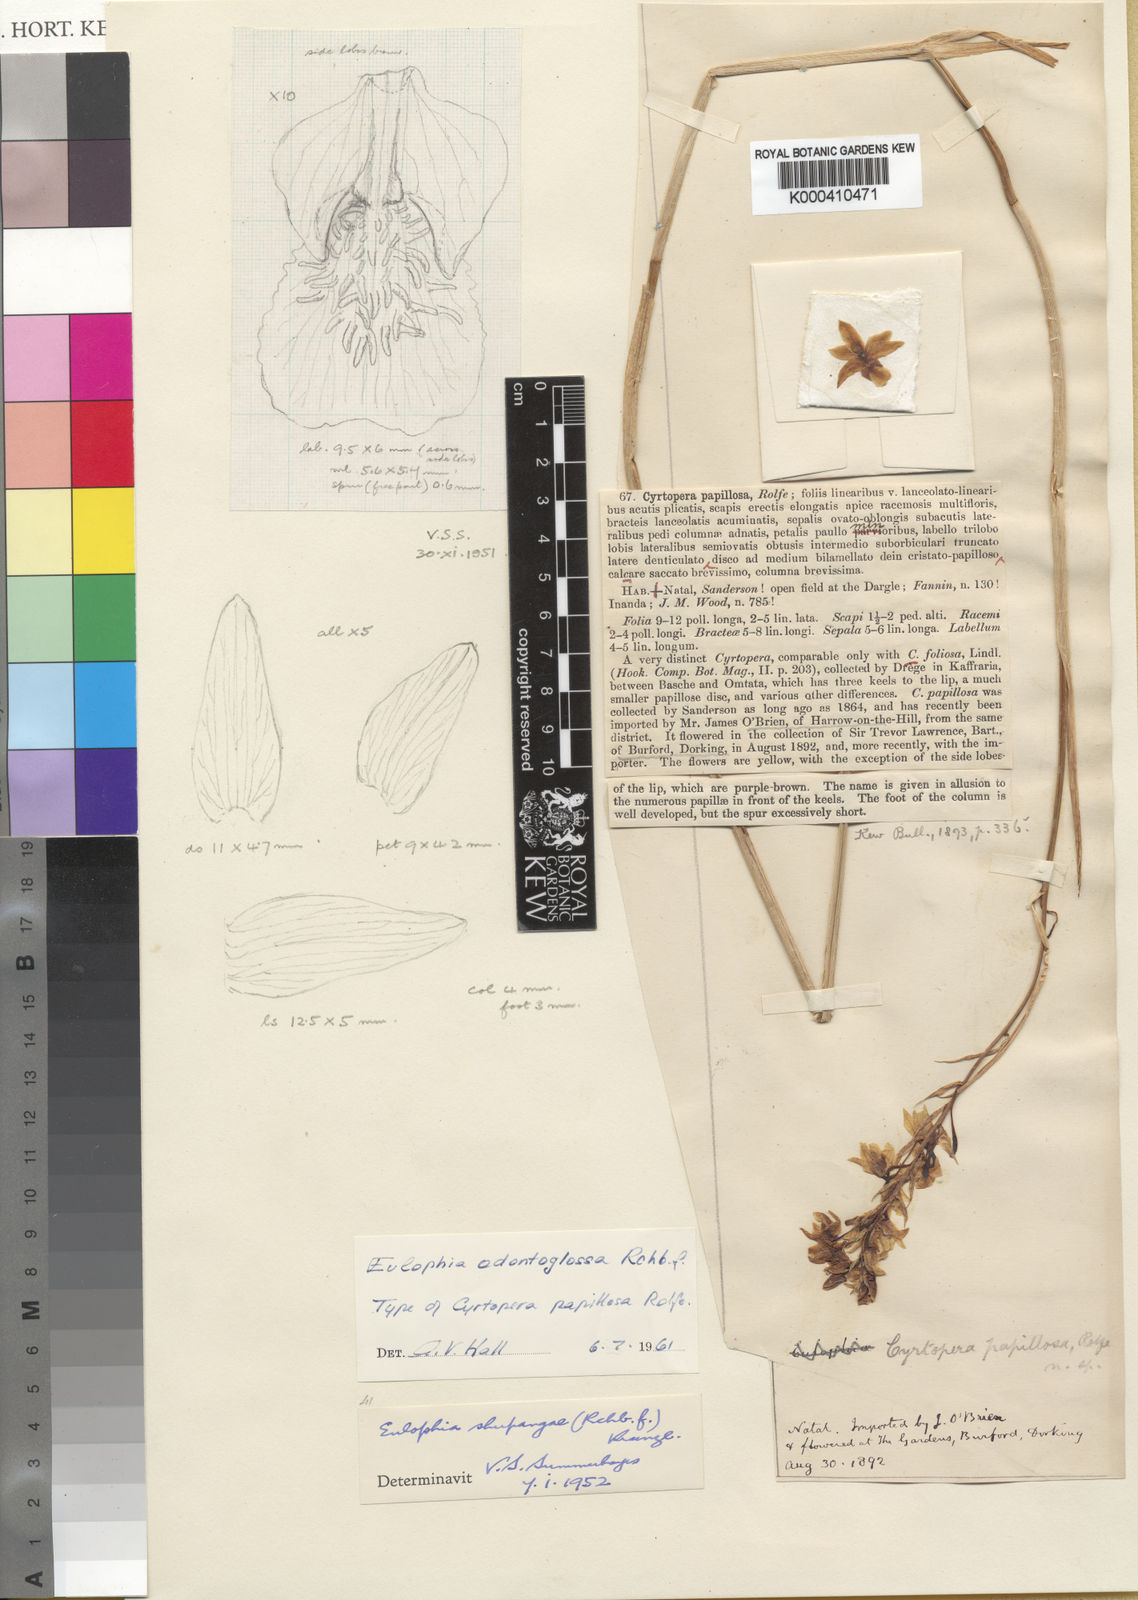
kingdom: Plantae
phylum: Tracheophyta
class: Liliopsida
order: Asparagales
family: Orchidaceae
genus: Eulophia
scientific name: Eulophia odontoglossa
